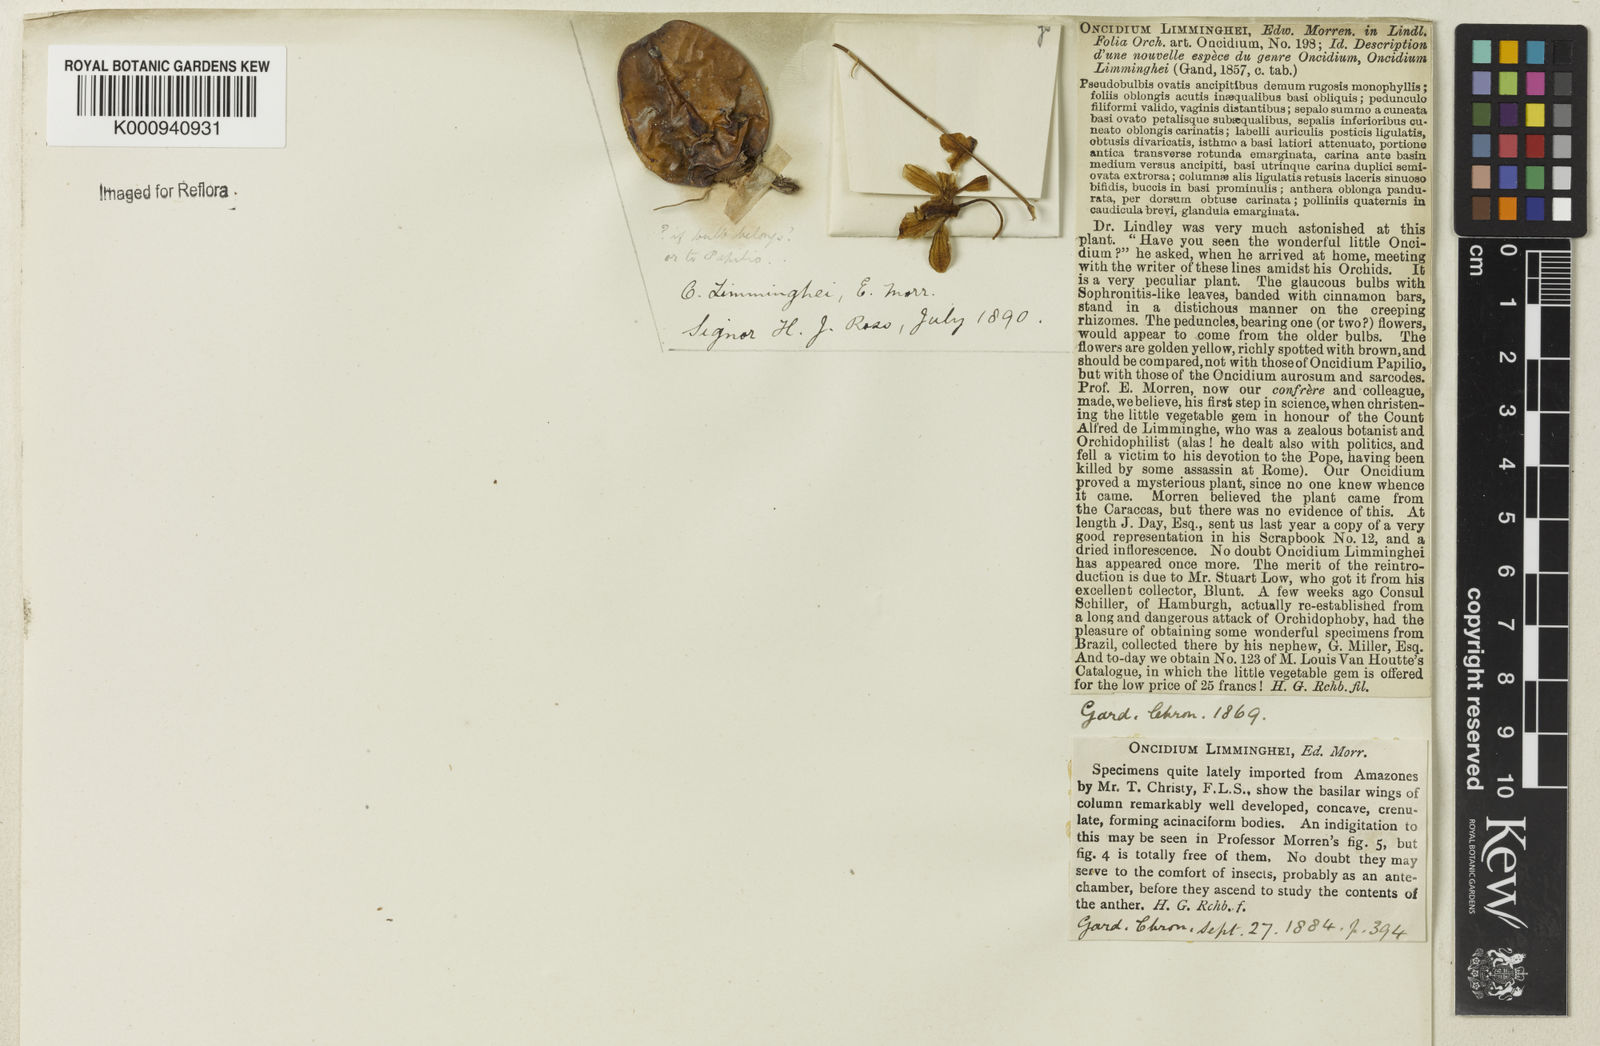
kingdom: Plantae
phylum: Tracheophyta
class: Liliopsida
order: Asparagales
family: Orchidaceae
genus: Oncidium
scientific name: Oncidium
